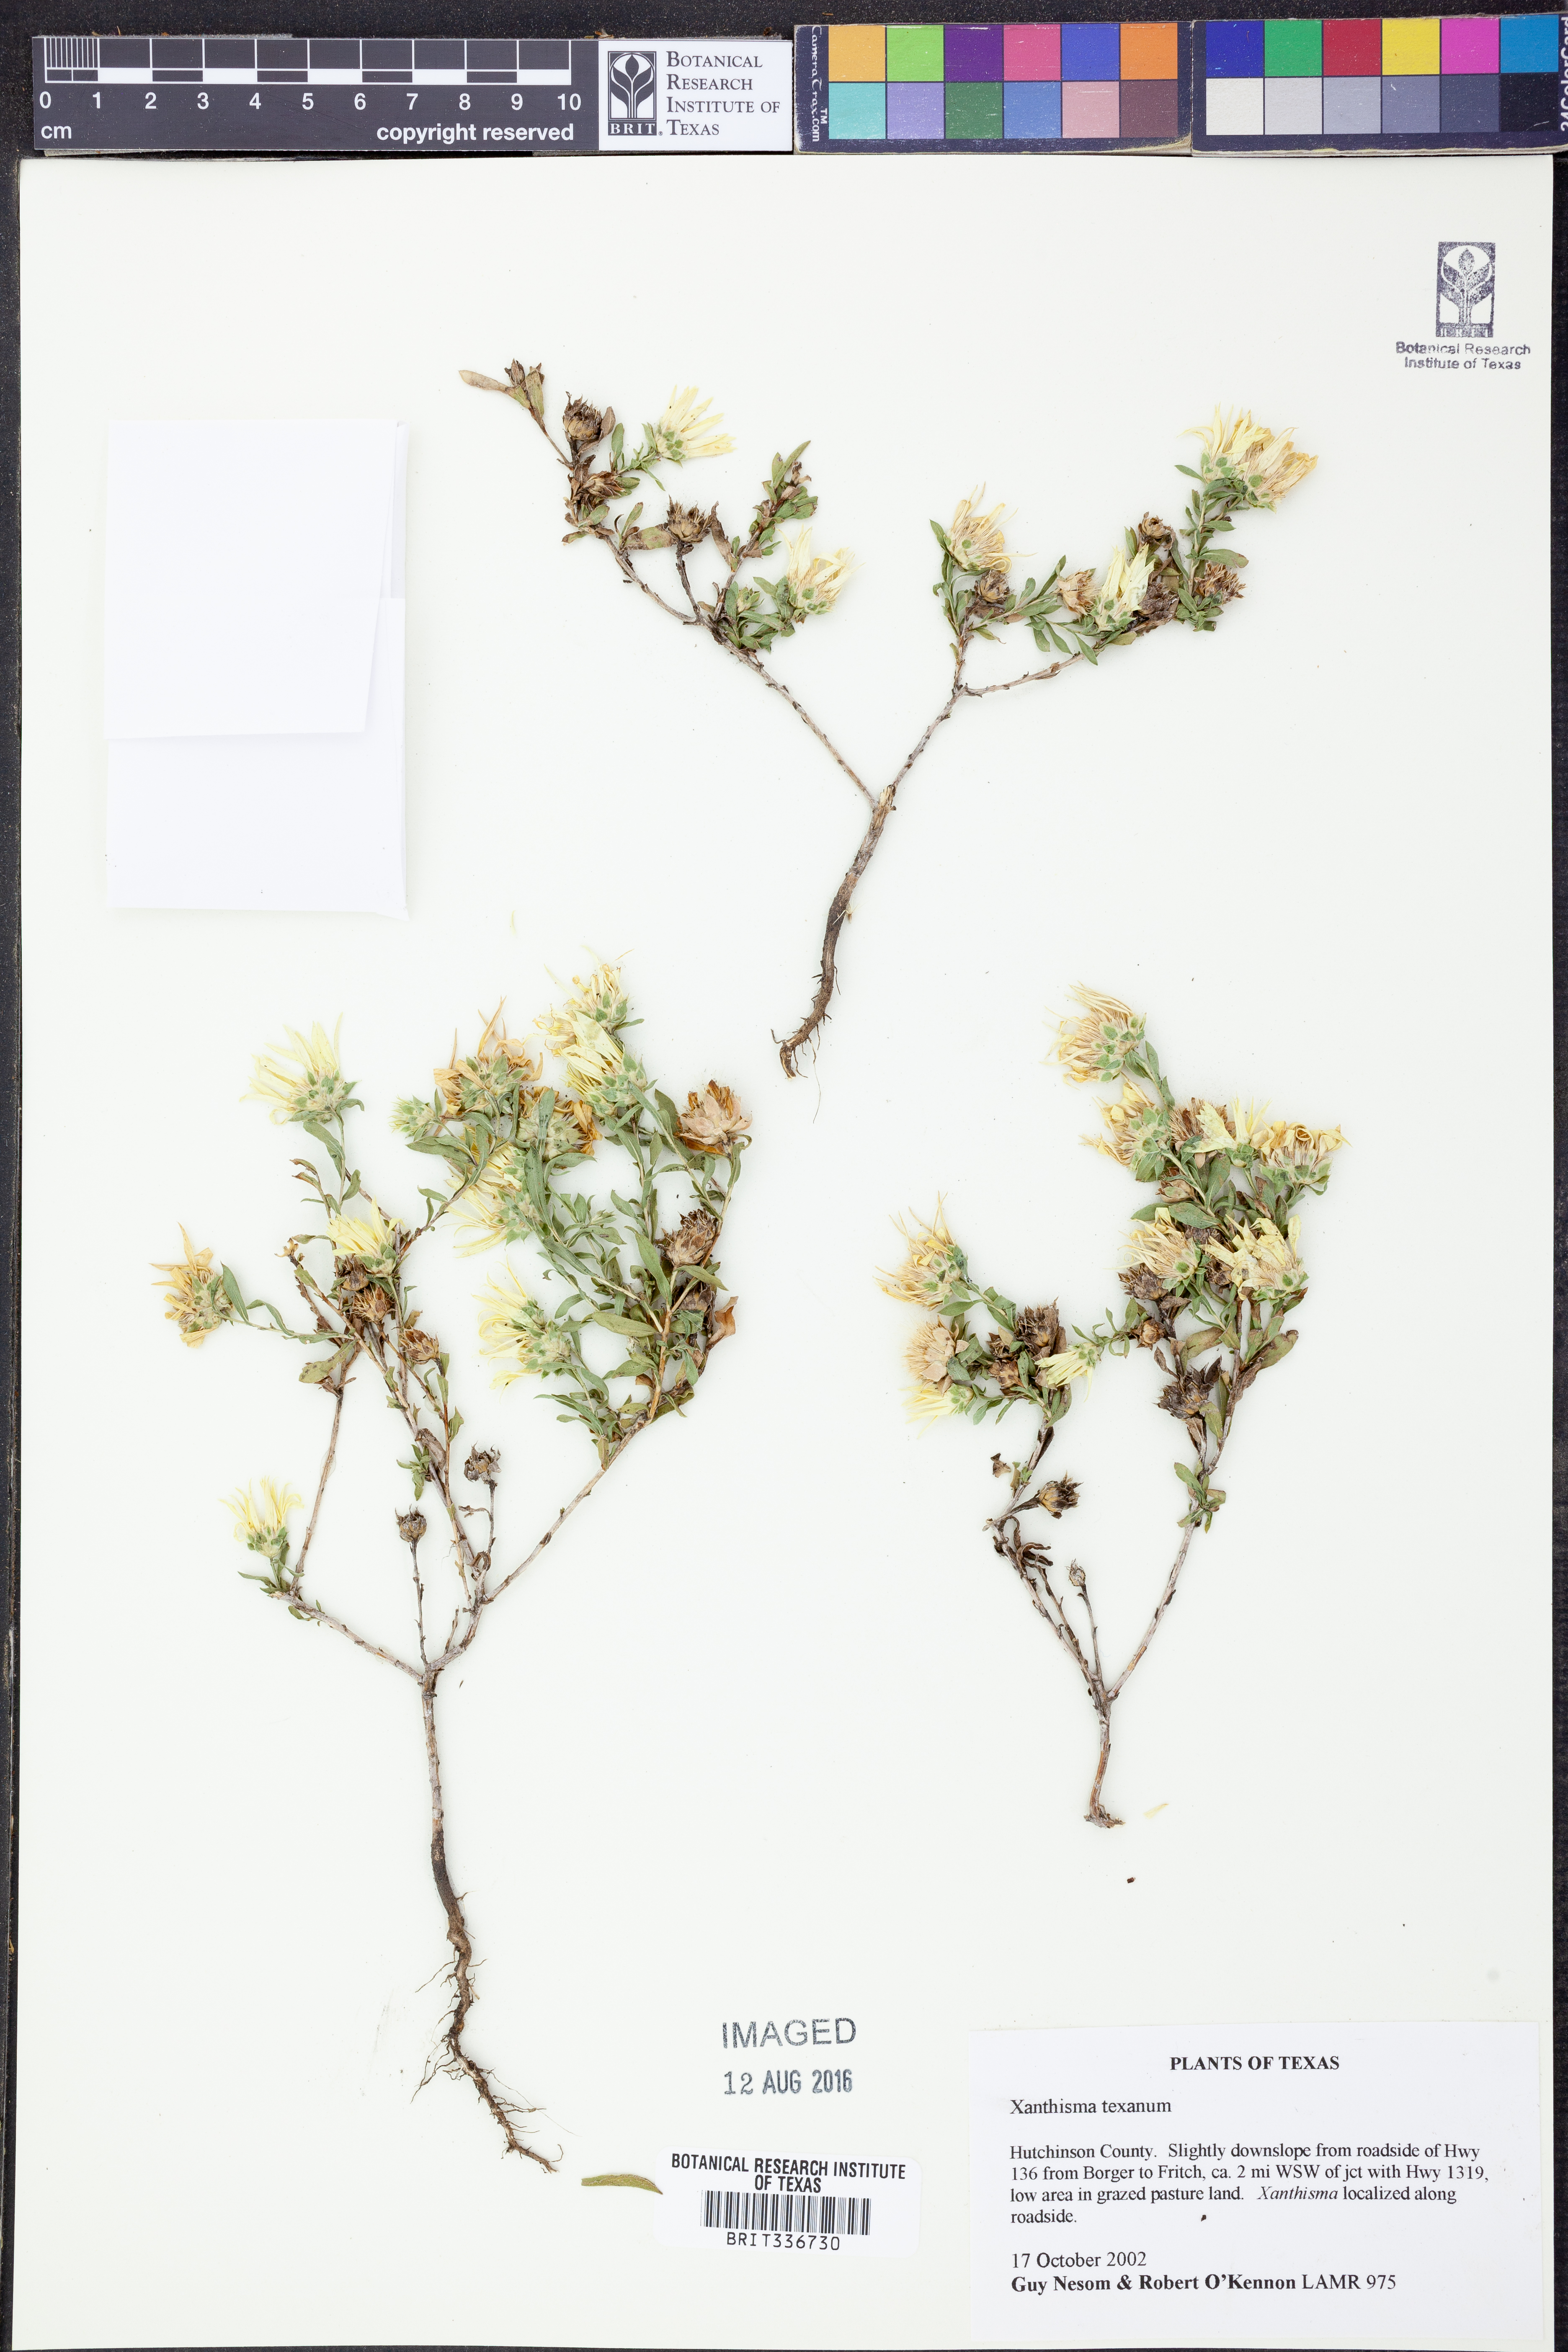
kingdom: Plantae
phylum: Tracheophyta
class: Magnoliopsida
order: Asterales
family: Asteraceae
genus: Xanthisma
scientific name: Xanthisma texanum
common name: Texas sleepy daisy
